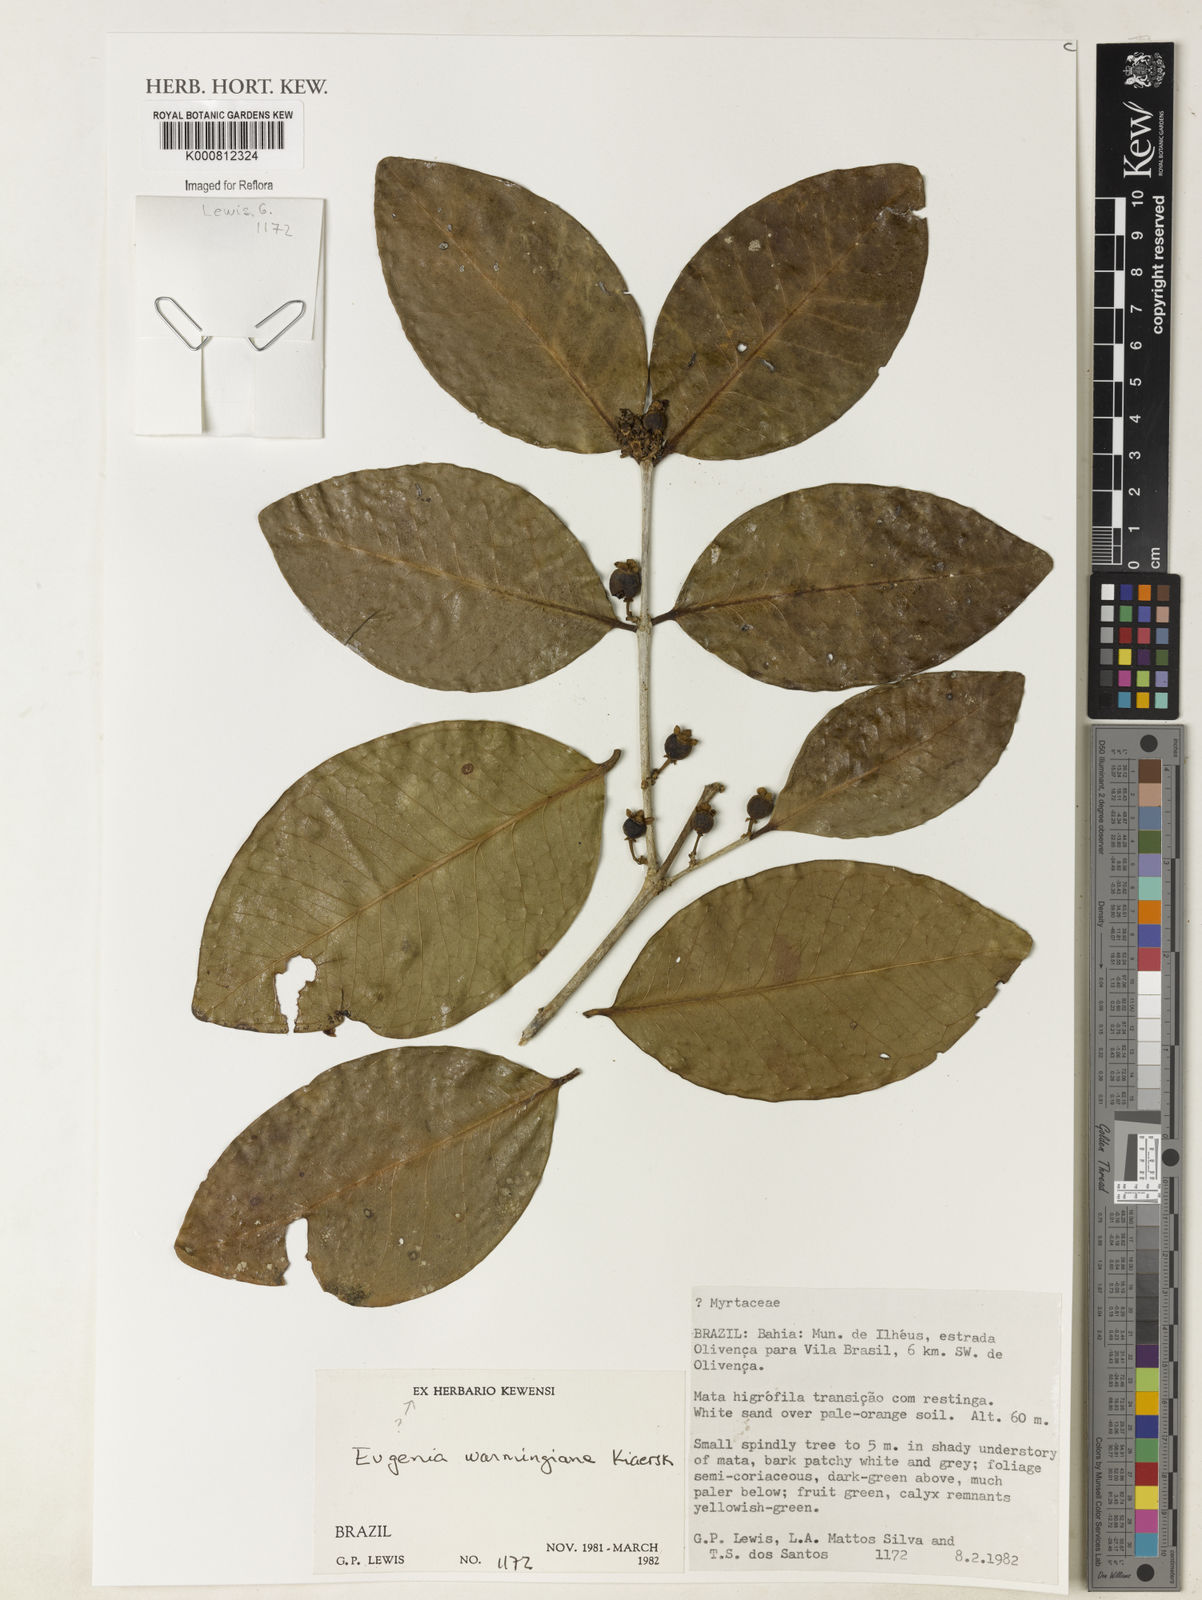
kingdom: Plantae
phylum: Tracheophyta
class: Magnoliopsida
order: Myrtales
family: Myrtaceae
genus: Eugenia
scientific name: Eugenia warmingiana
